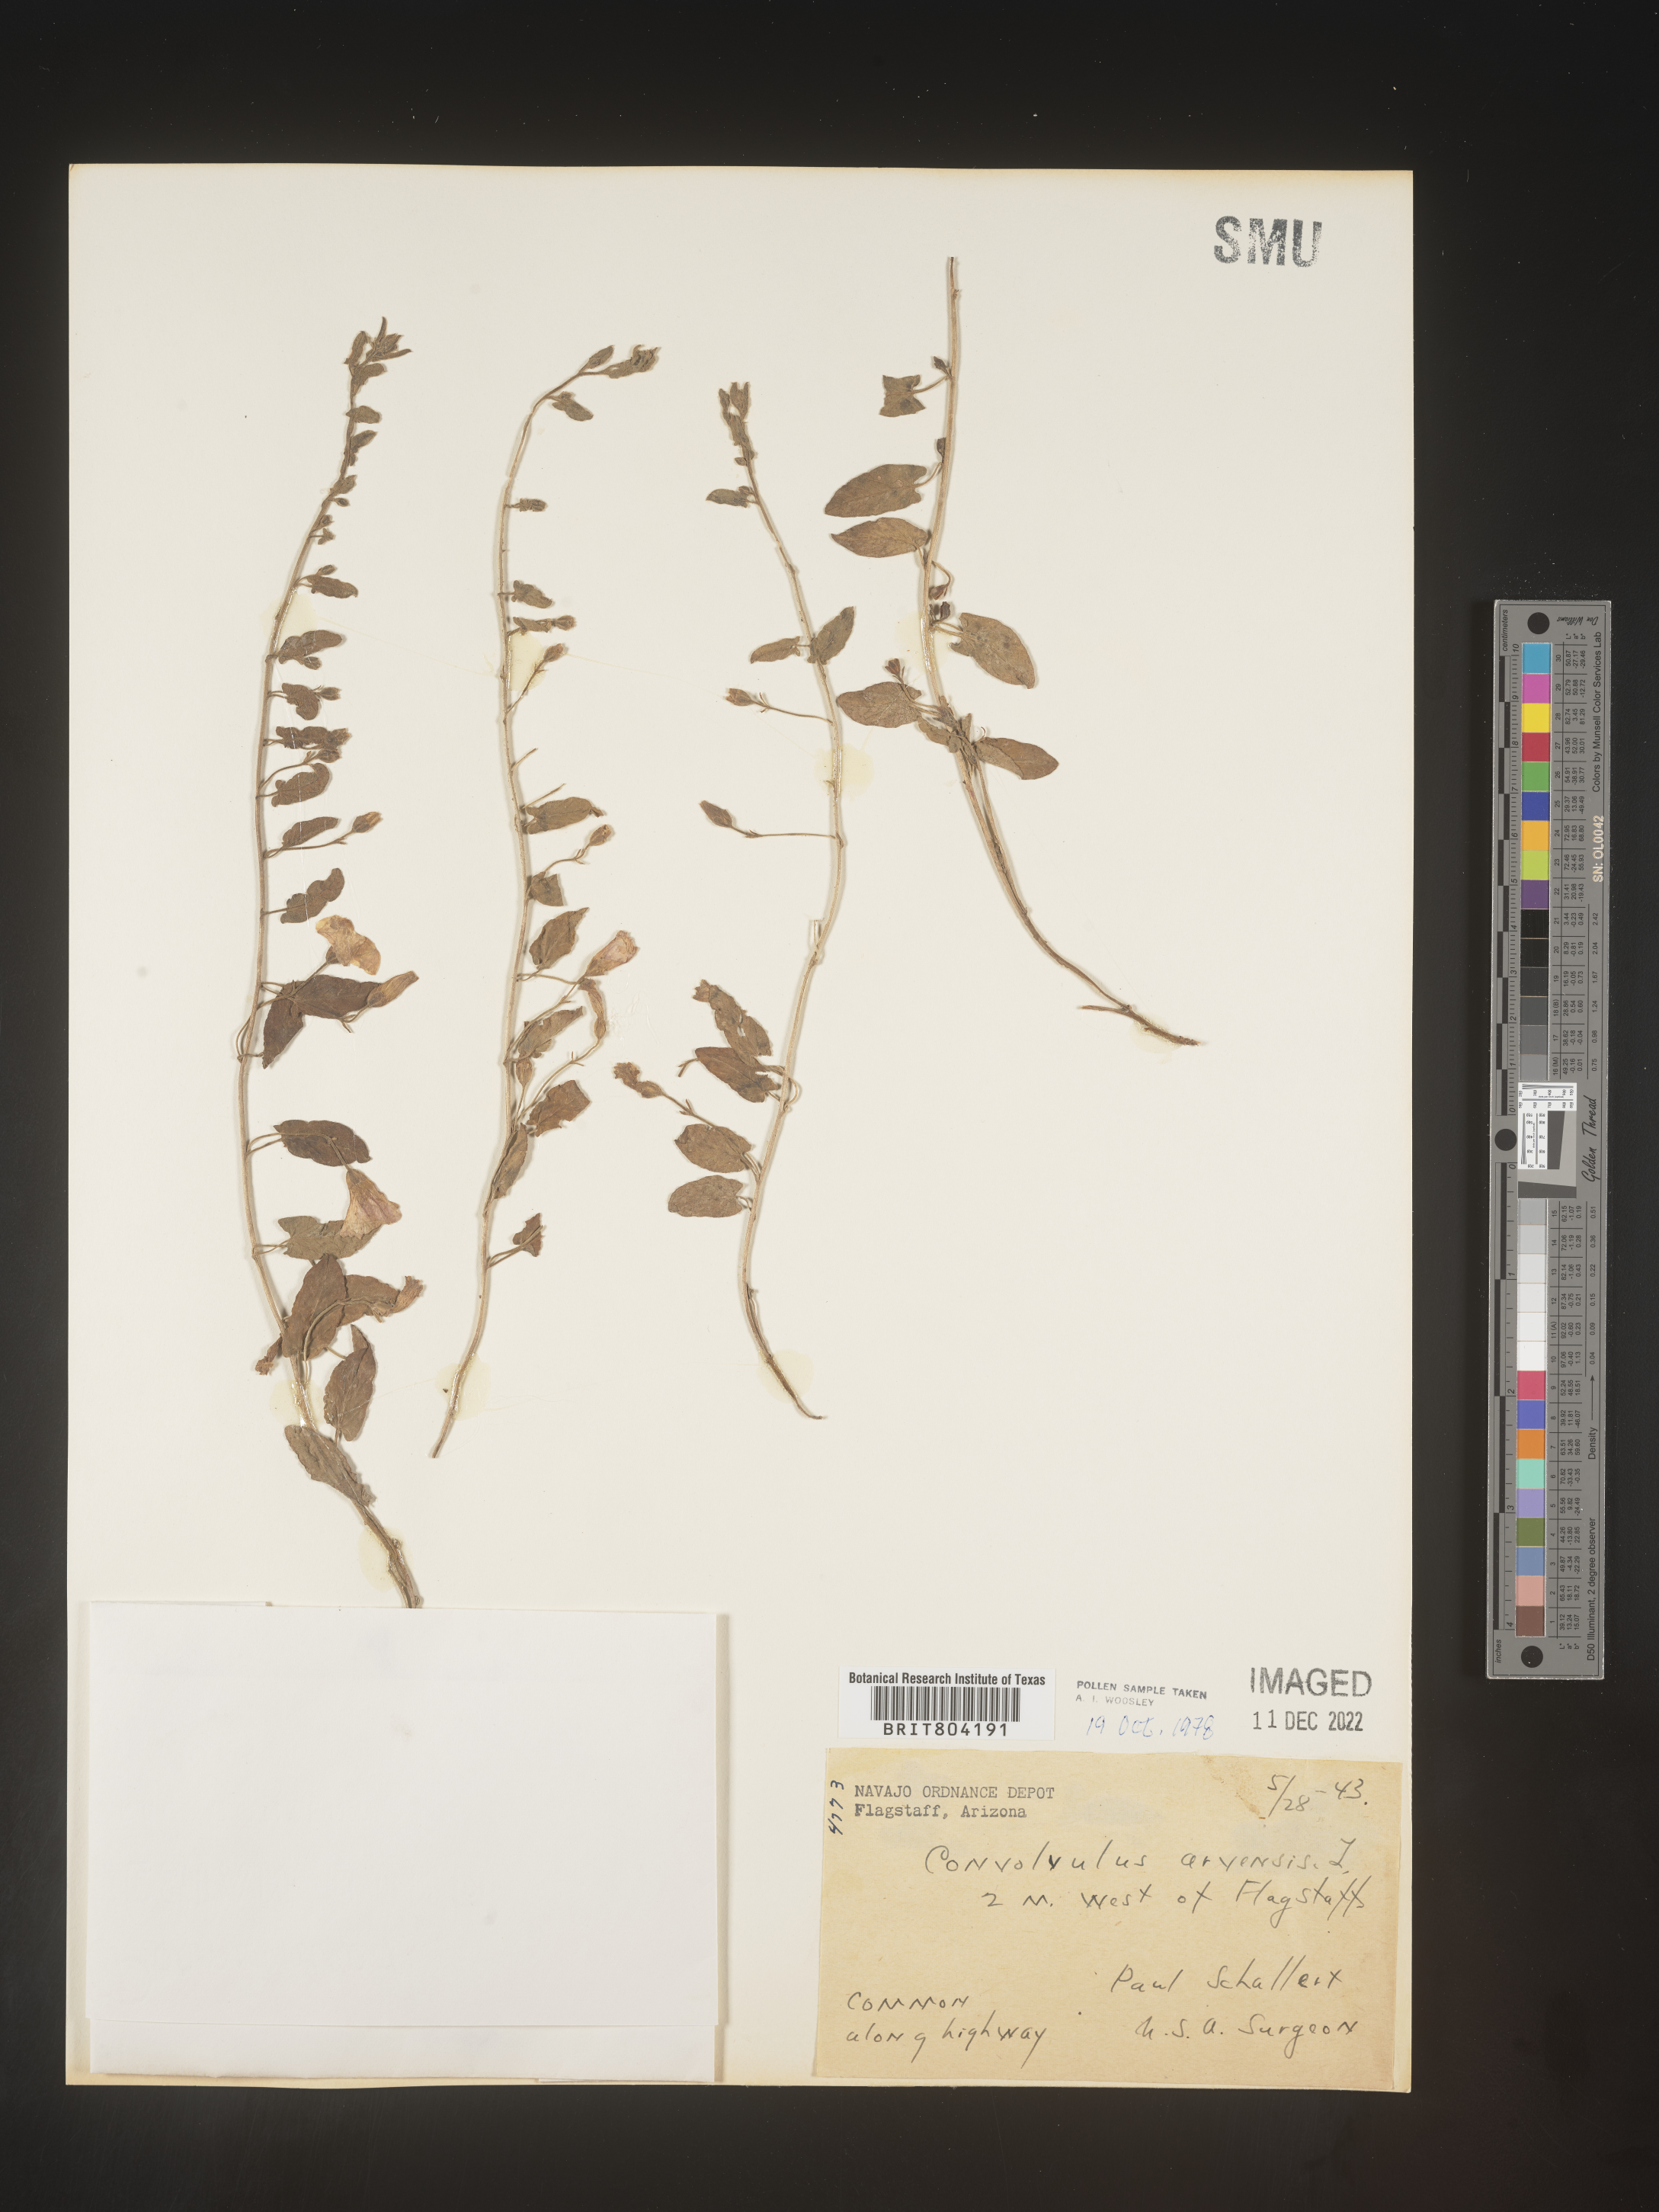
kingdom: Plantae
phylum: Tracheophyta
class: Magnoliopsida
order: Solanales
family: Convolvulaceae
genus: Convolvulus
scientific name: Convolvulus arvensis
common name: Field bindweed
